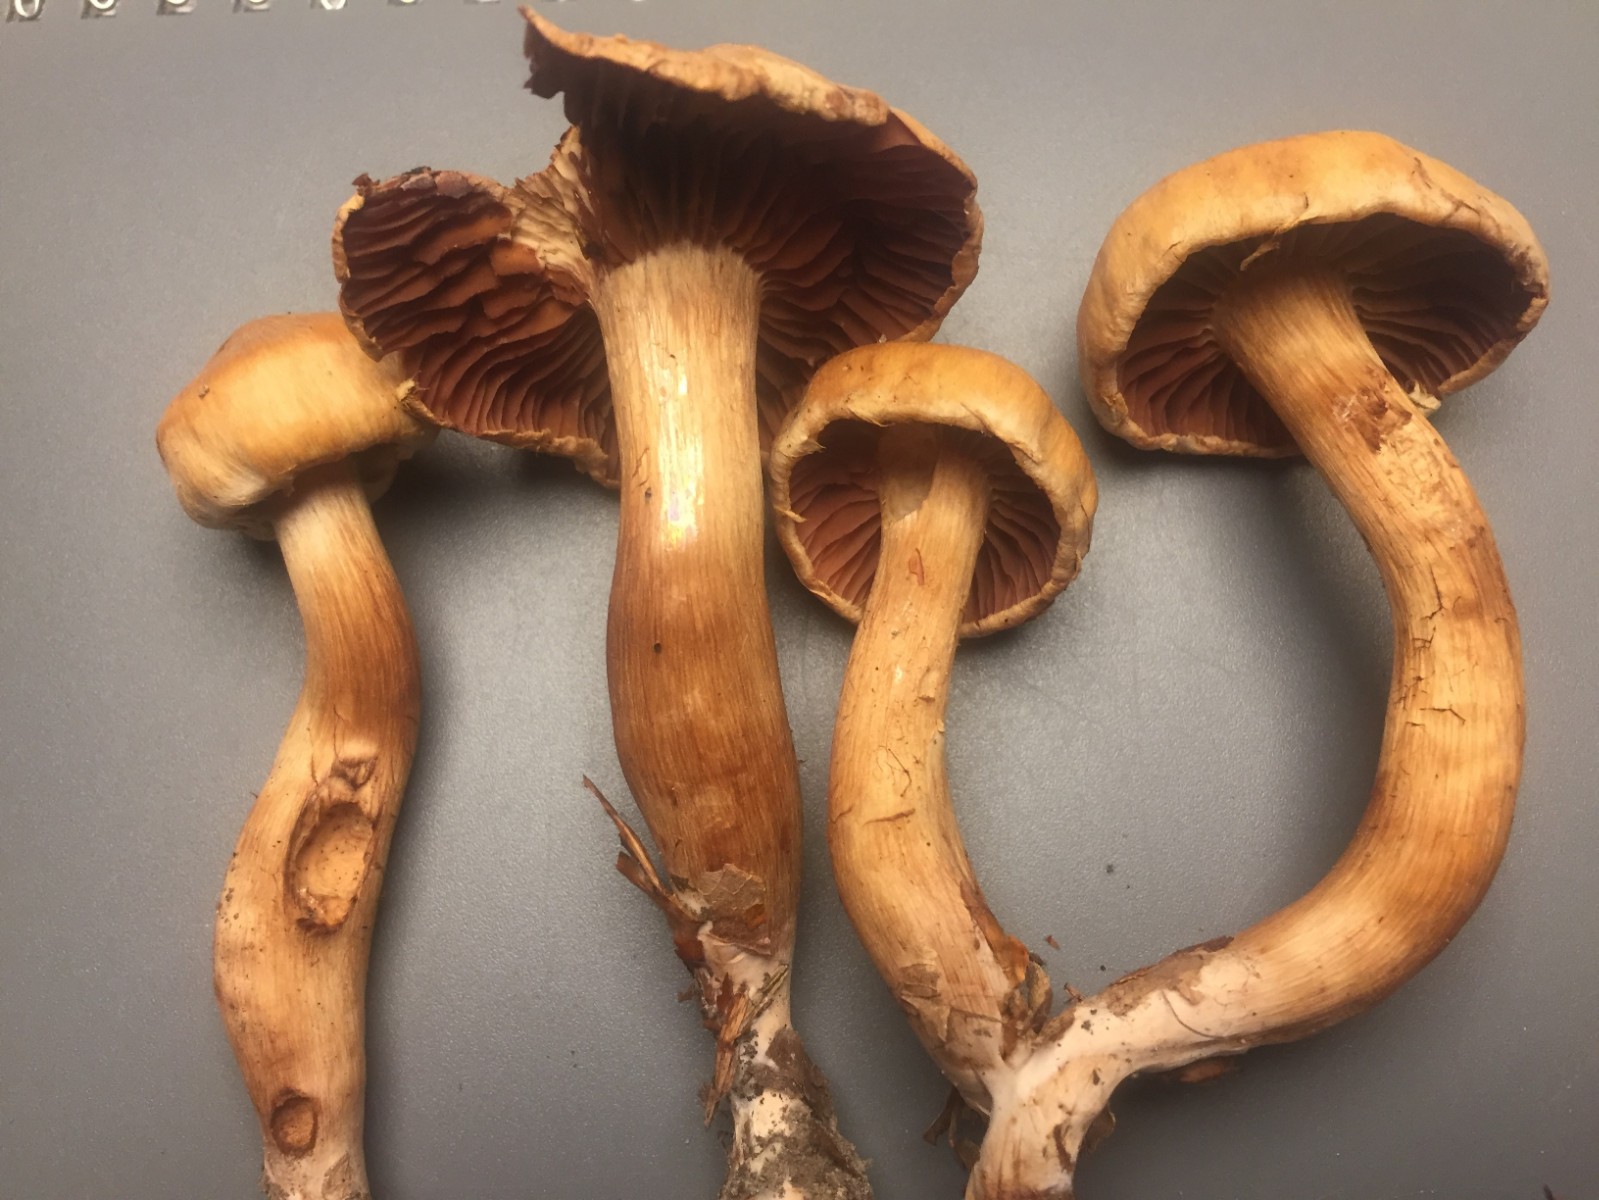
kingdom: Fungi
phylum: Basidiomycota
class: Agaricomycetes
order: Agaricales
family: Cortinariaceae
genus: Cortinarius
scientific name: Cortinarius hinnuleus
